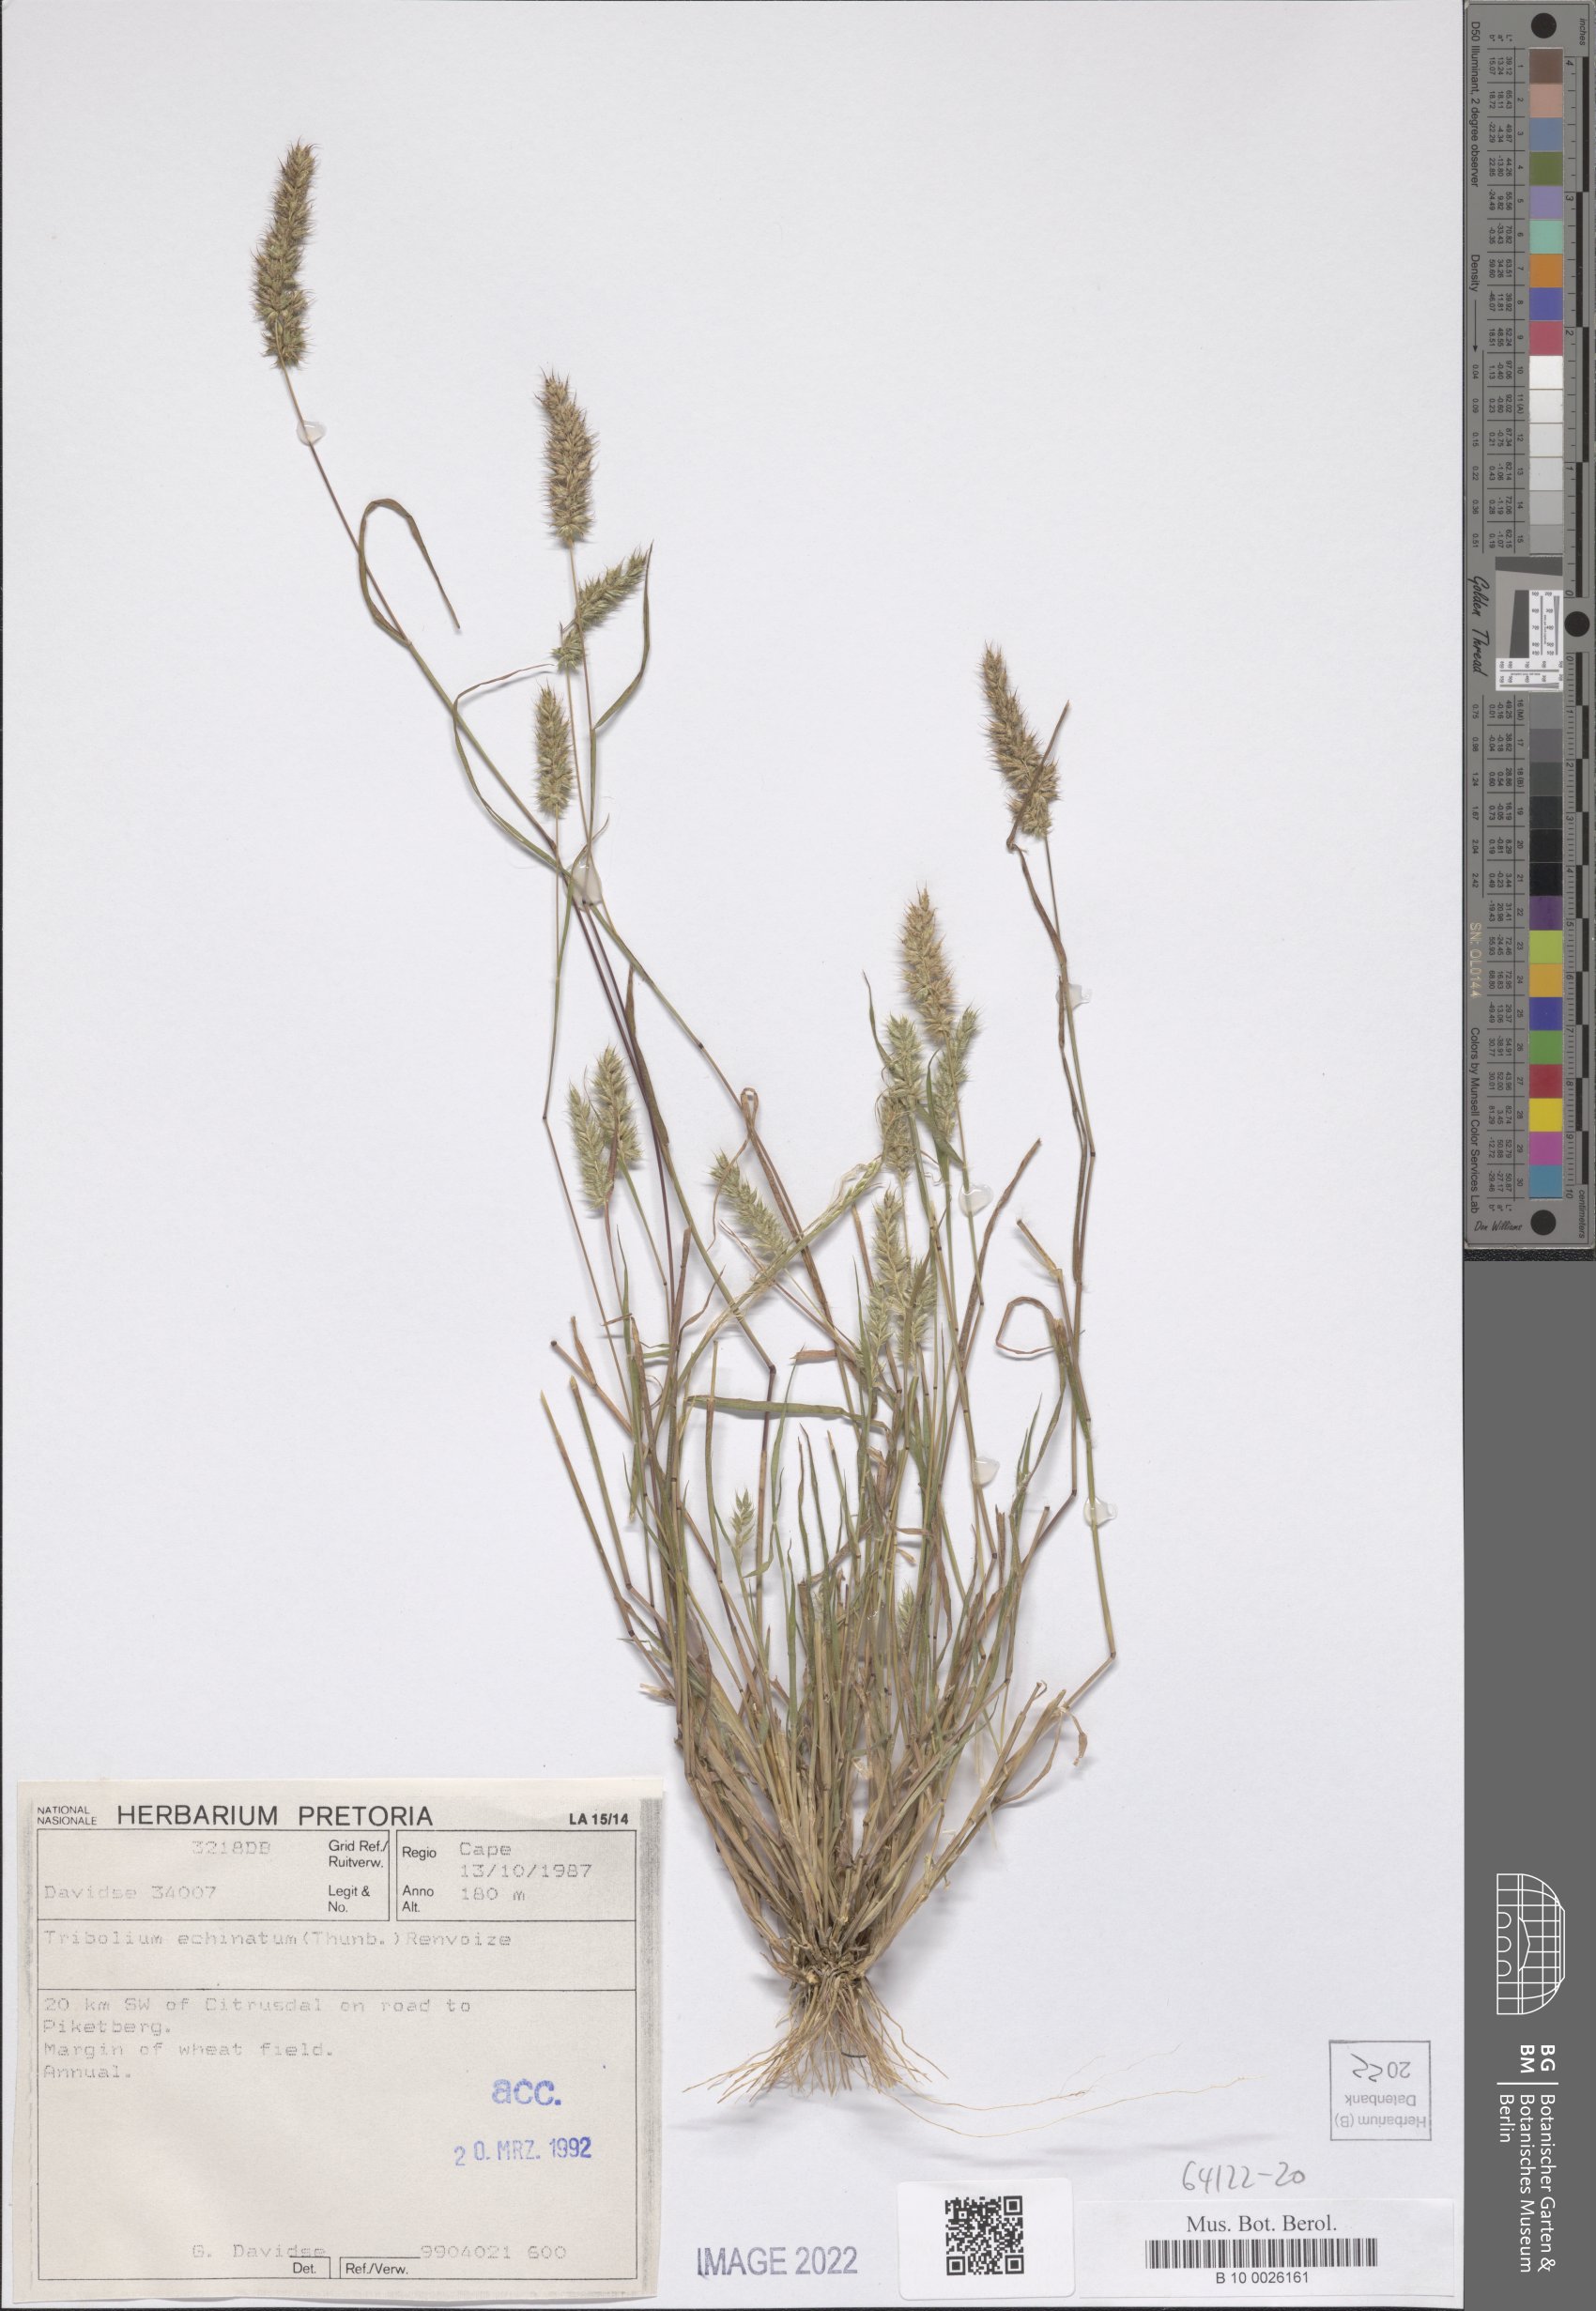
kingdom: Plantae
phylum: Tracheophyta
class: Liliopsida
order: Poales
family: Poaceae
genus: Tribolium
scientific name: Tribolium echinatum
